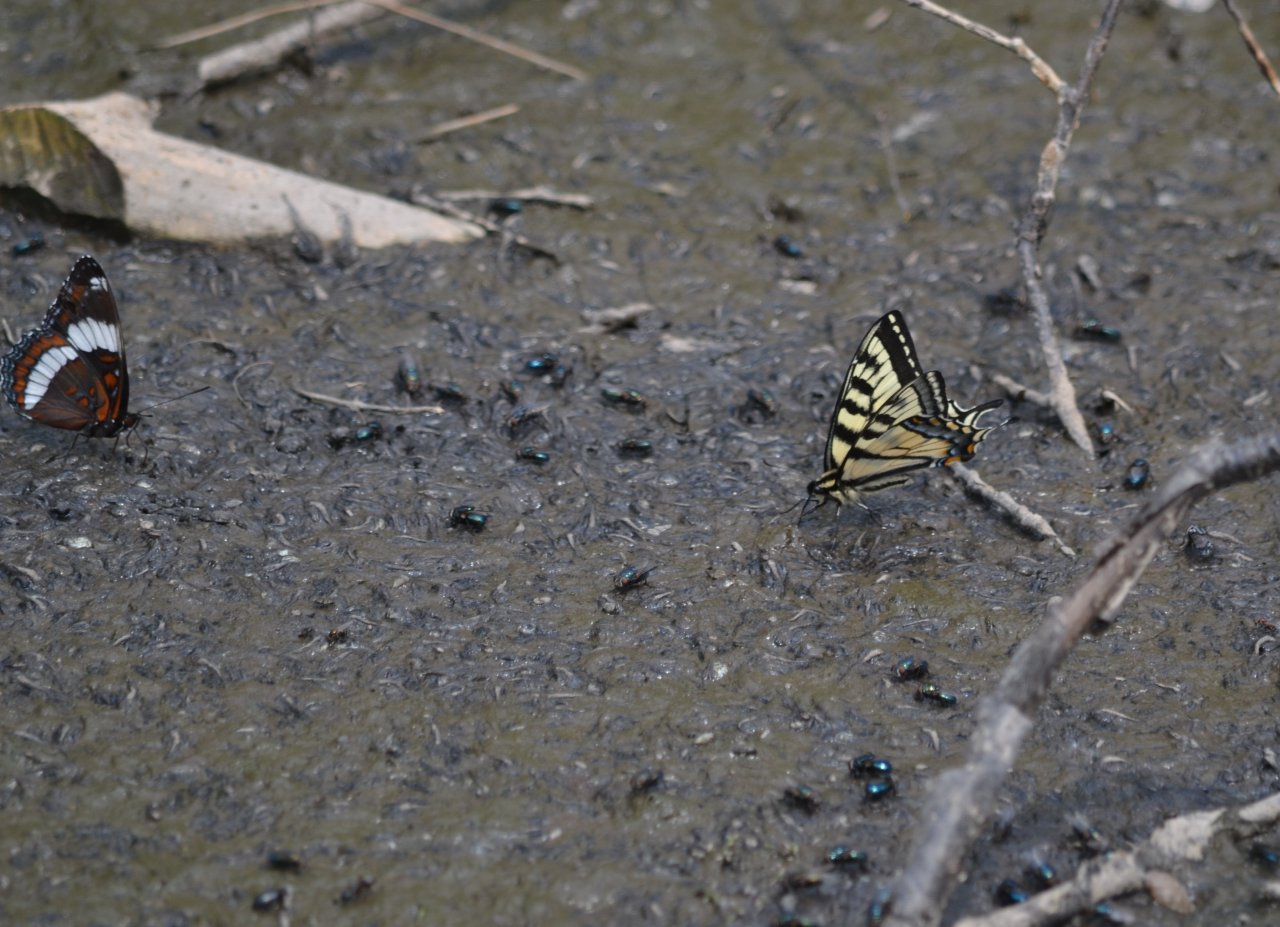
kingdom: Animalia
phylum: Arthropoda
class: Insecta
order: Lepidoptera
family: Papilionidae
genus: Pterourus
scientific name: Pterourus canadensis
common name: Canadian Tiger Swallowtail
